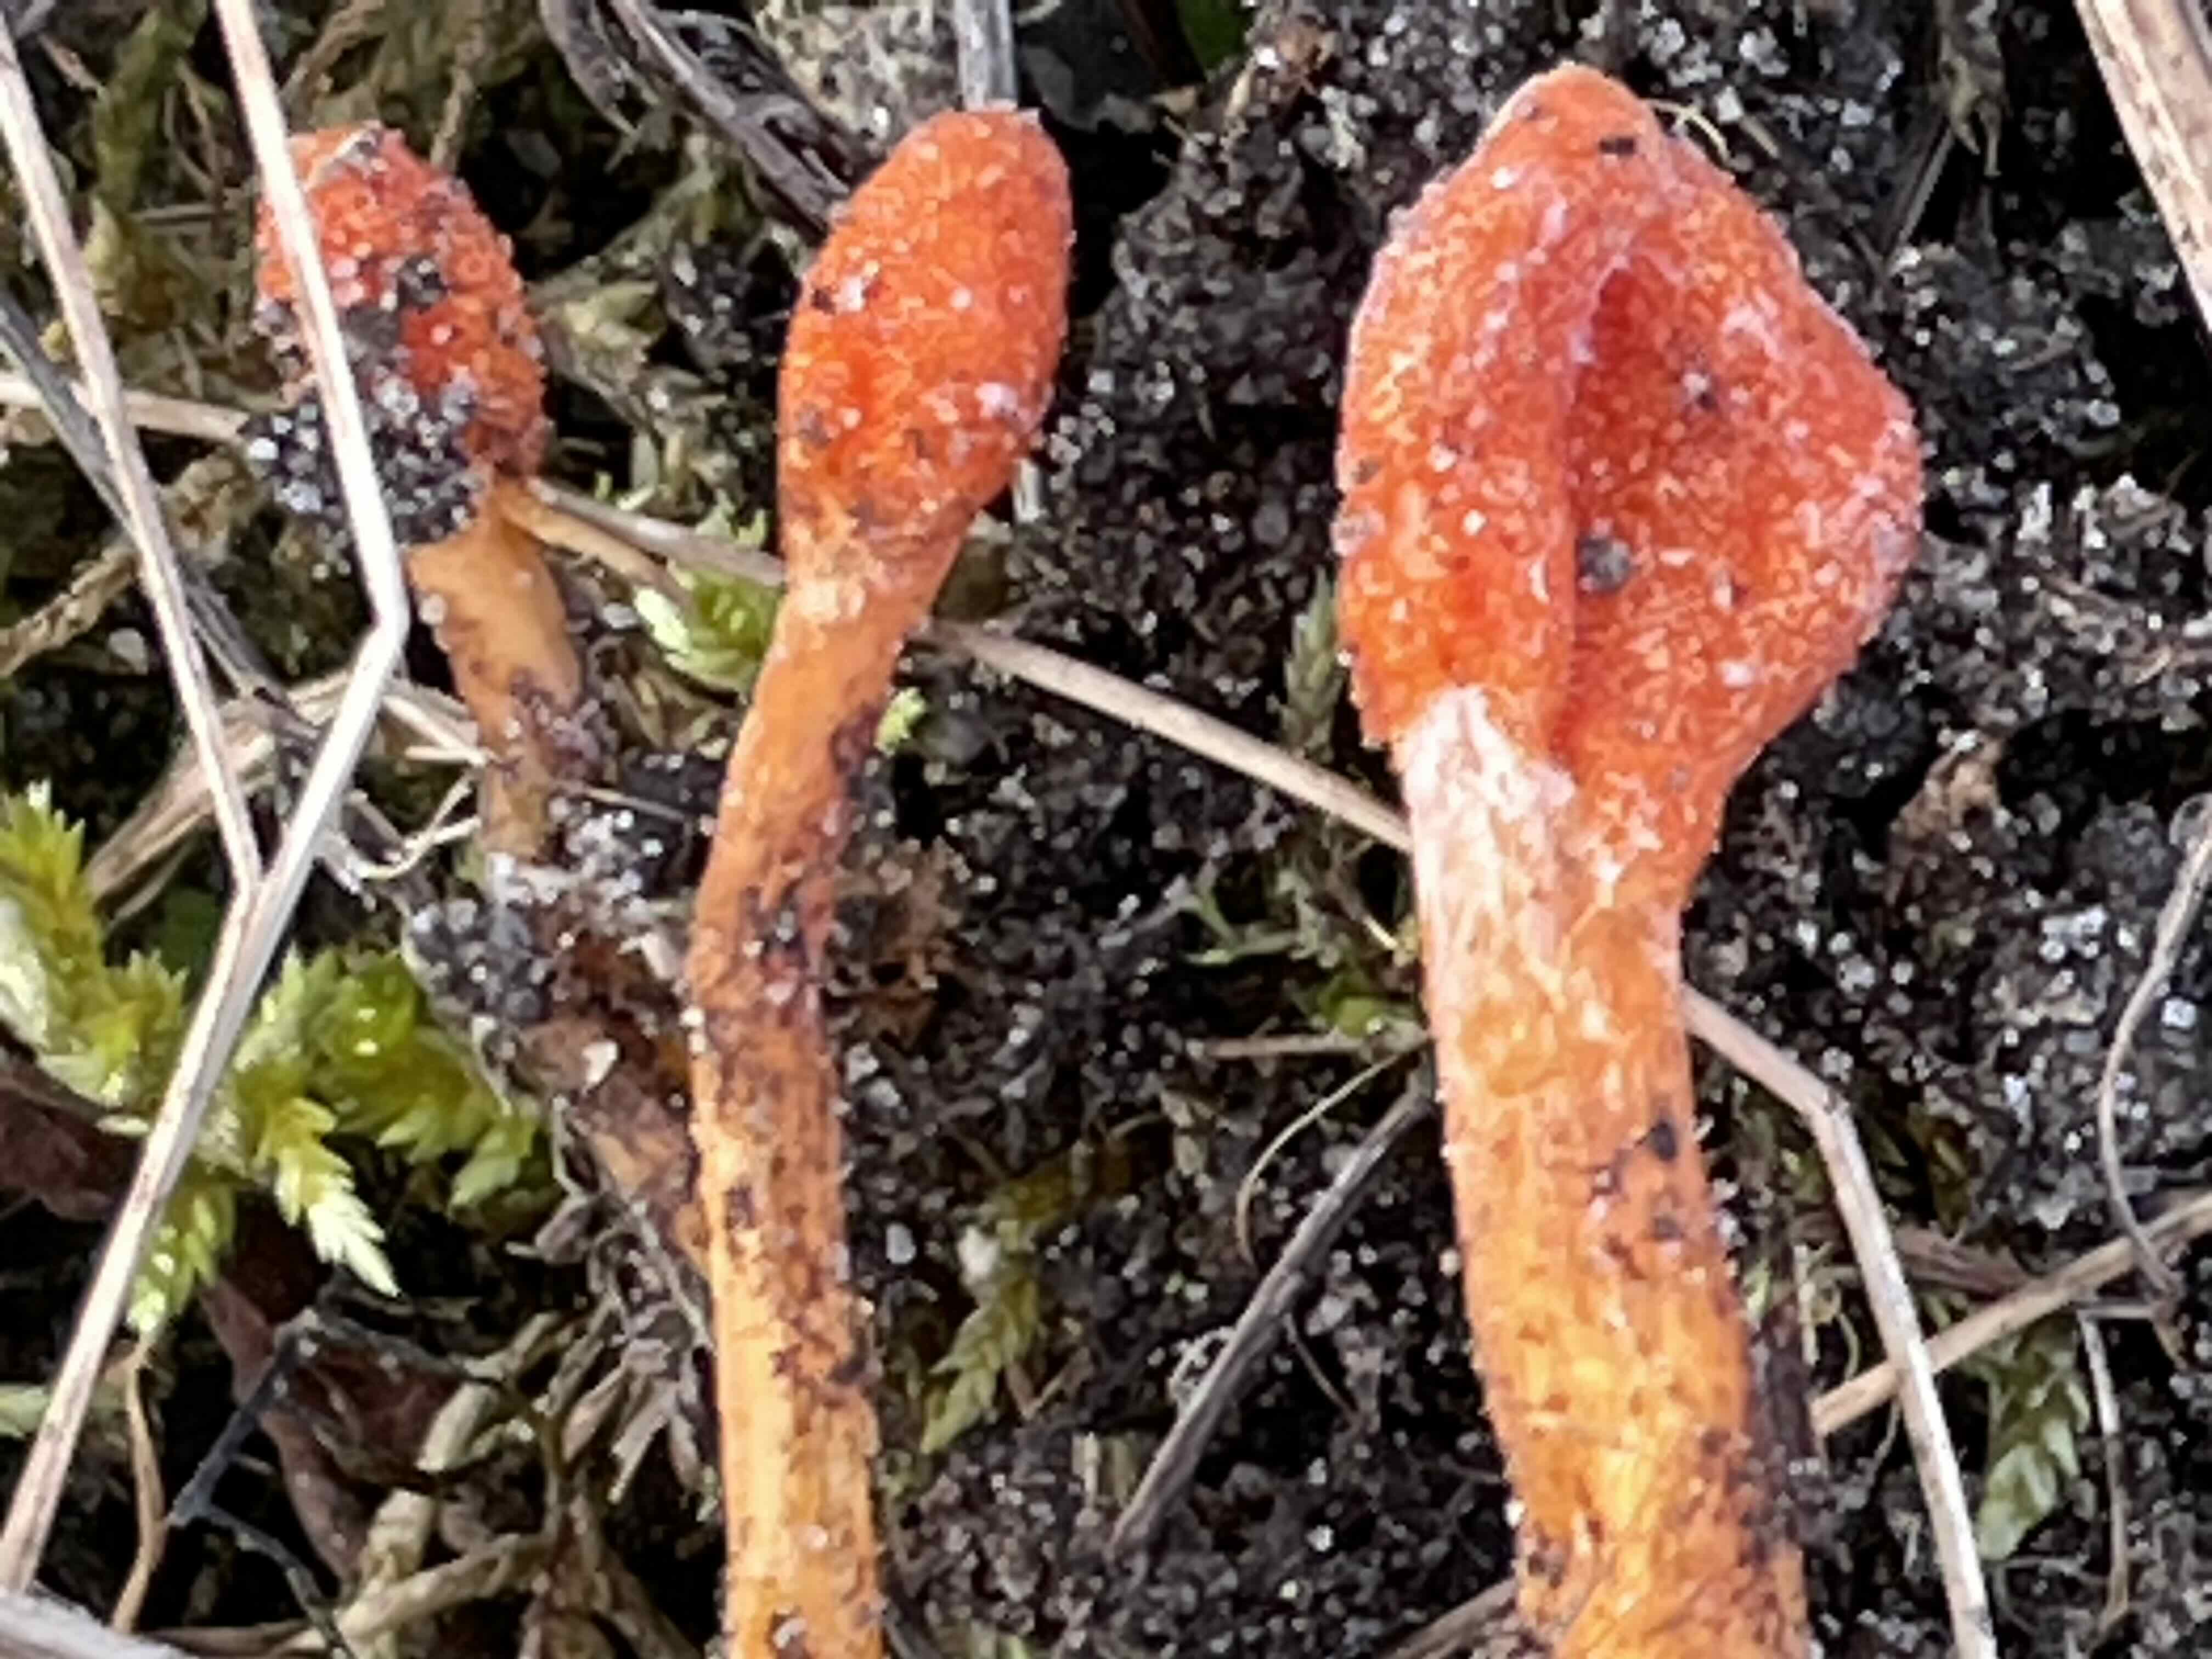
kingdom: Fungi
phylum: Ascomycota
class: Sordariomycetes
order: Hypocreales
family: Cordycipitaceae
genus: Cordyceps
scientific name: Cordyceps militaris
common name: puppe-snyltekølle
